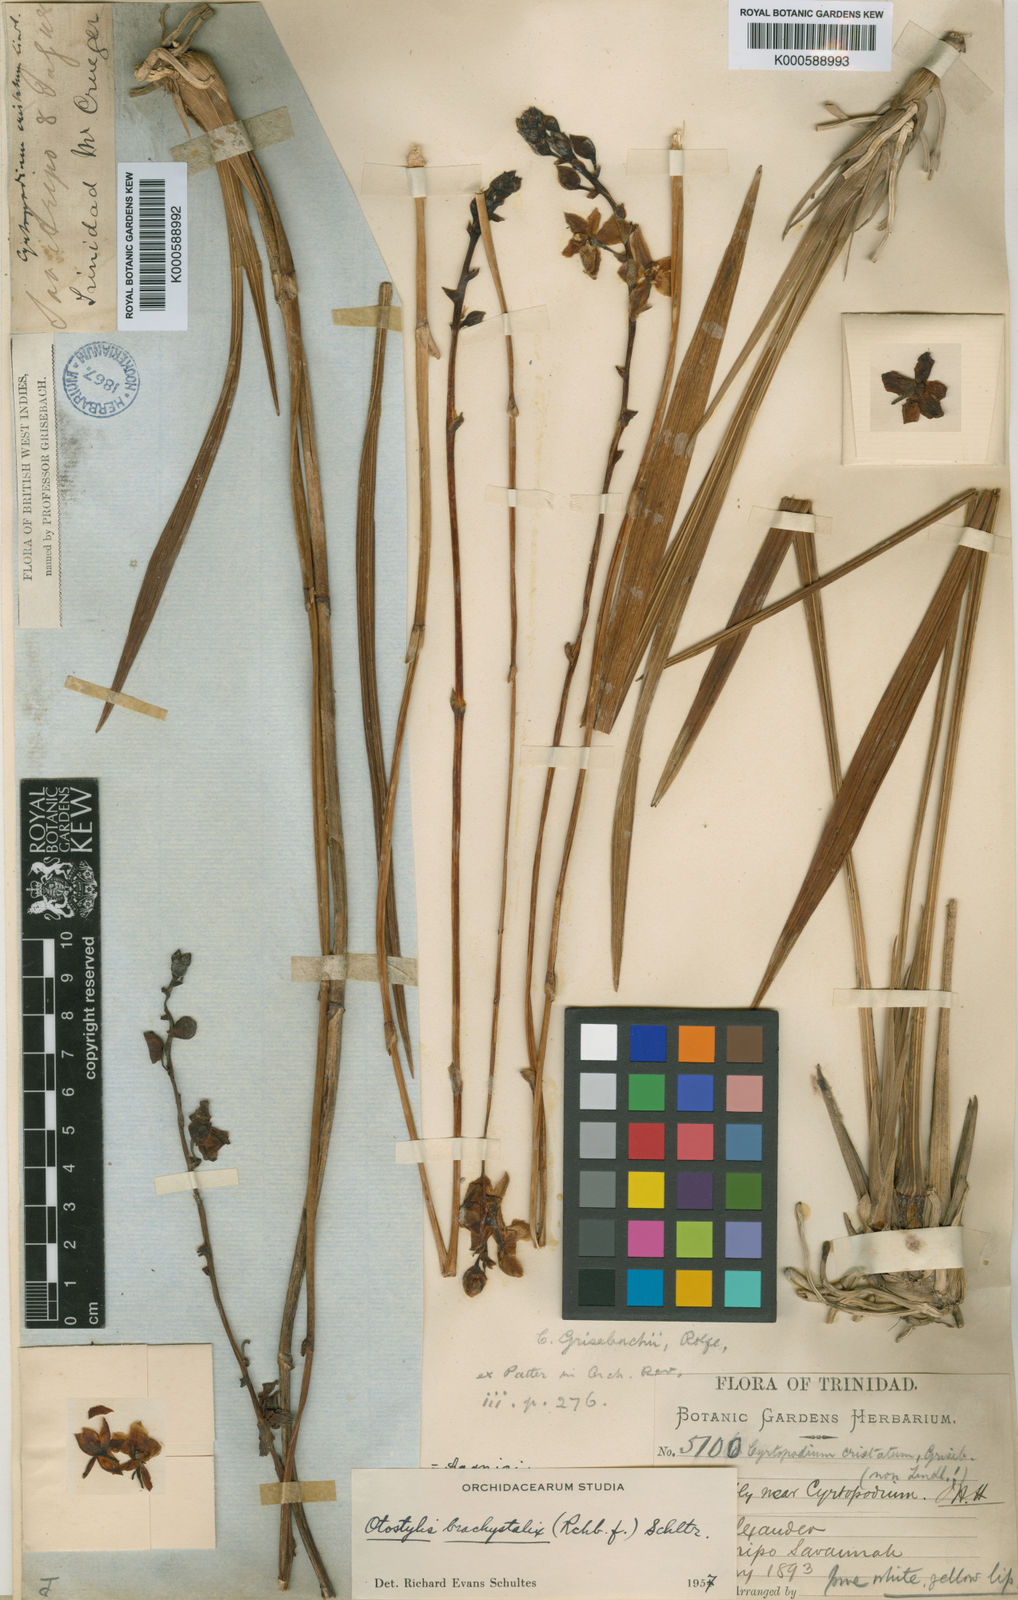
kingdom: Plantae
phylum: Tracheophyta
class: Liliopsida
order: Asparagales
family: Orchidaceae
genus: Otostylis
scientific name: Otostylis brachystalix
